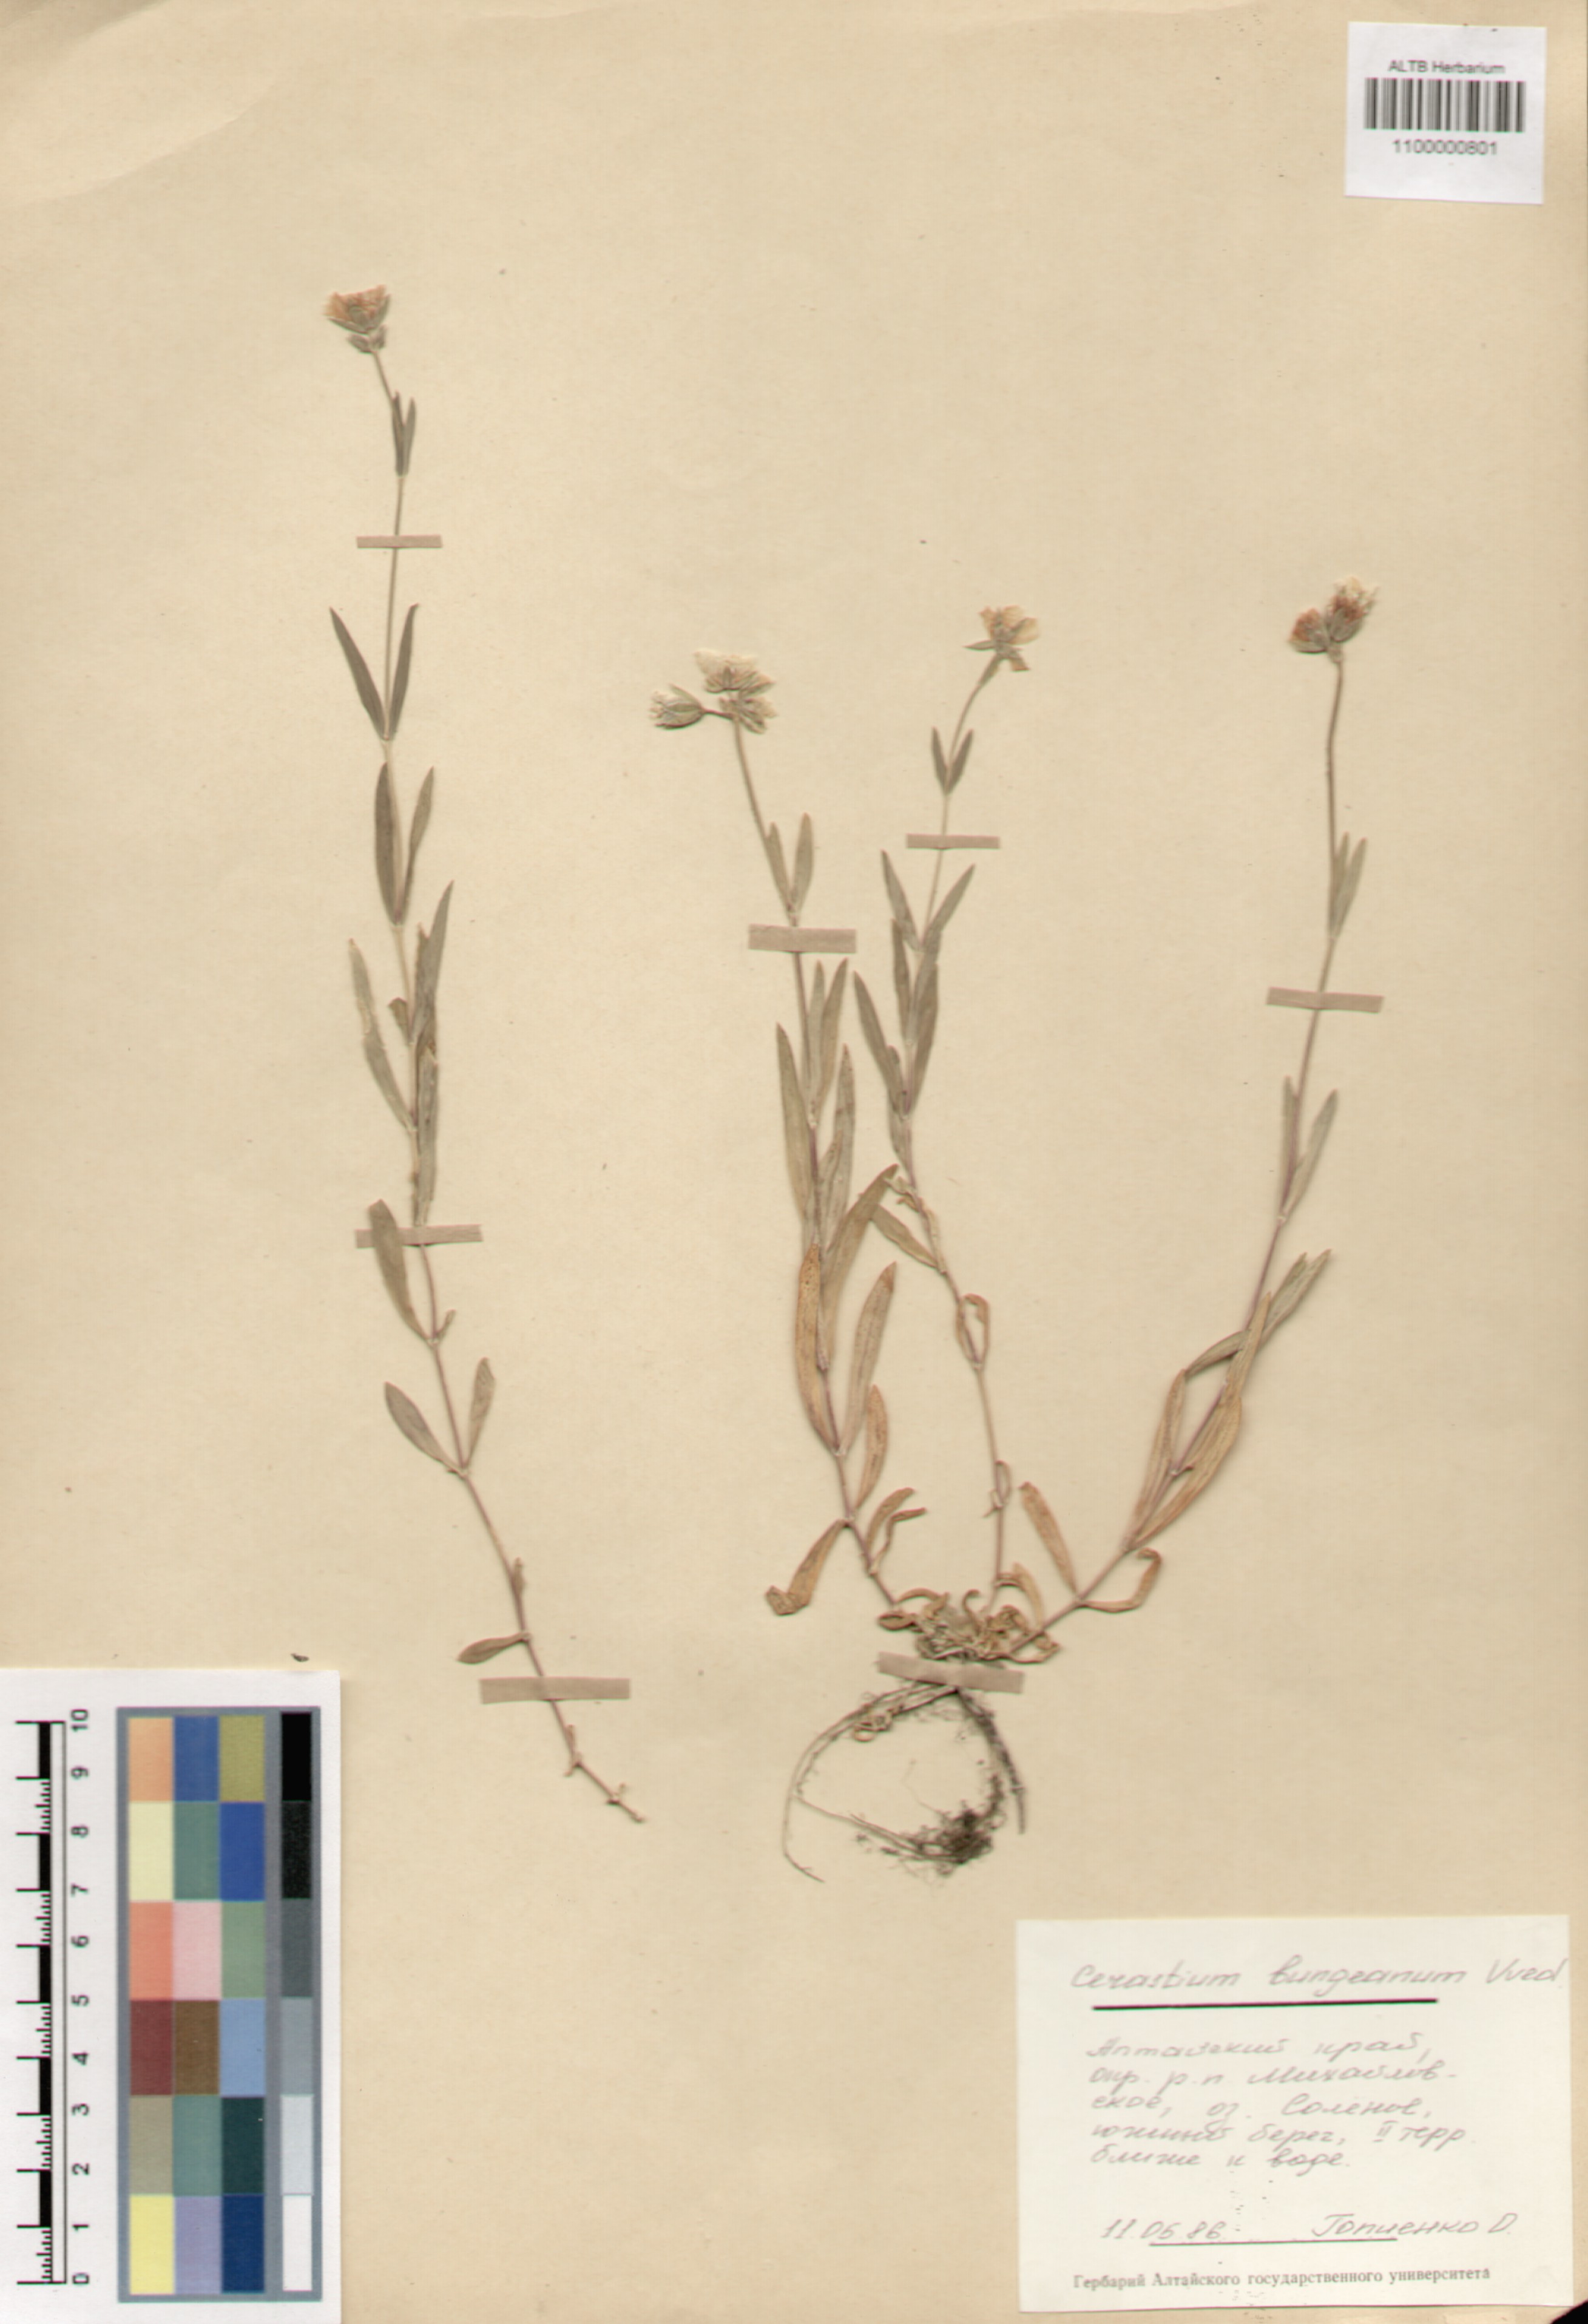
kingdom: Plantae
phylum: Tracheophyta
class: Magnoliopsida
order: Caryophyllales
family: Caryophyllaceae
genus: Dichodon
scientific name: Dichodon maximum
